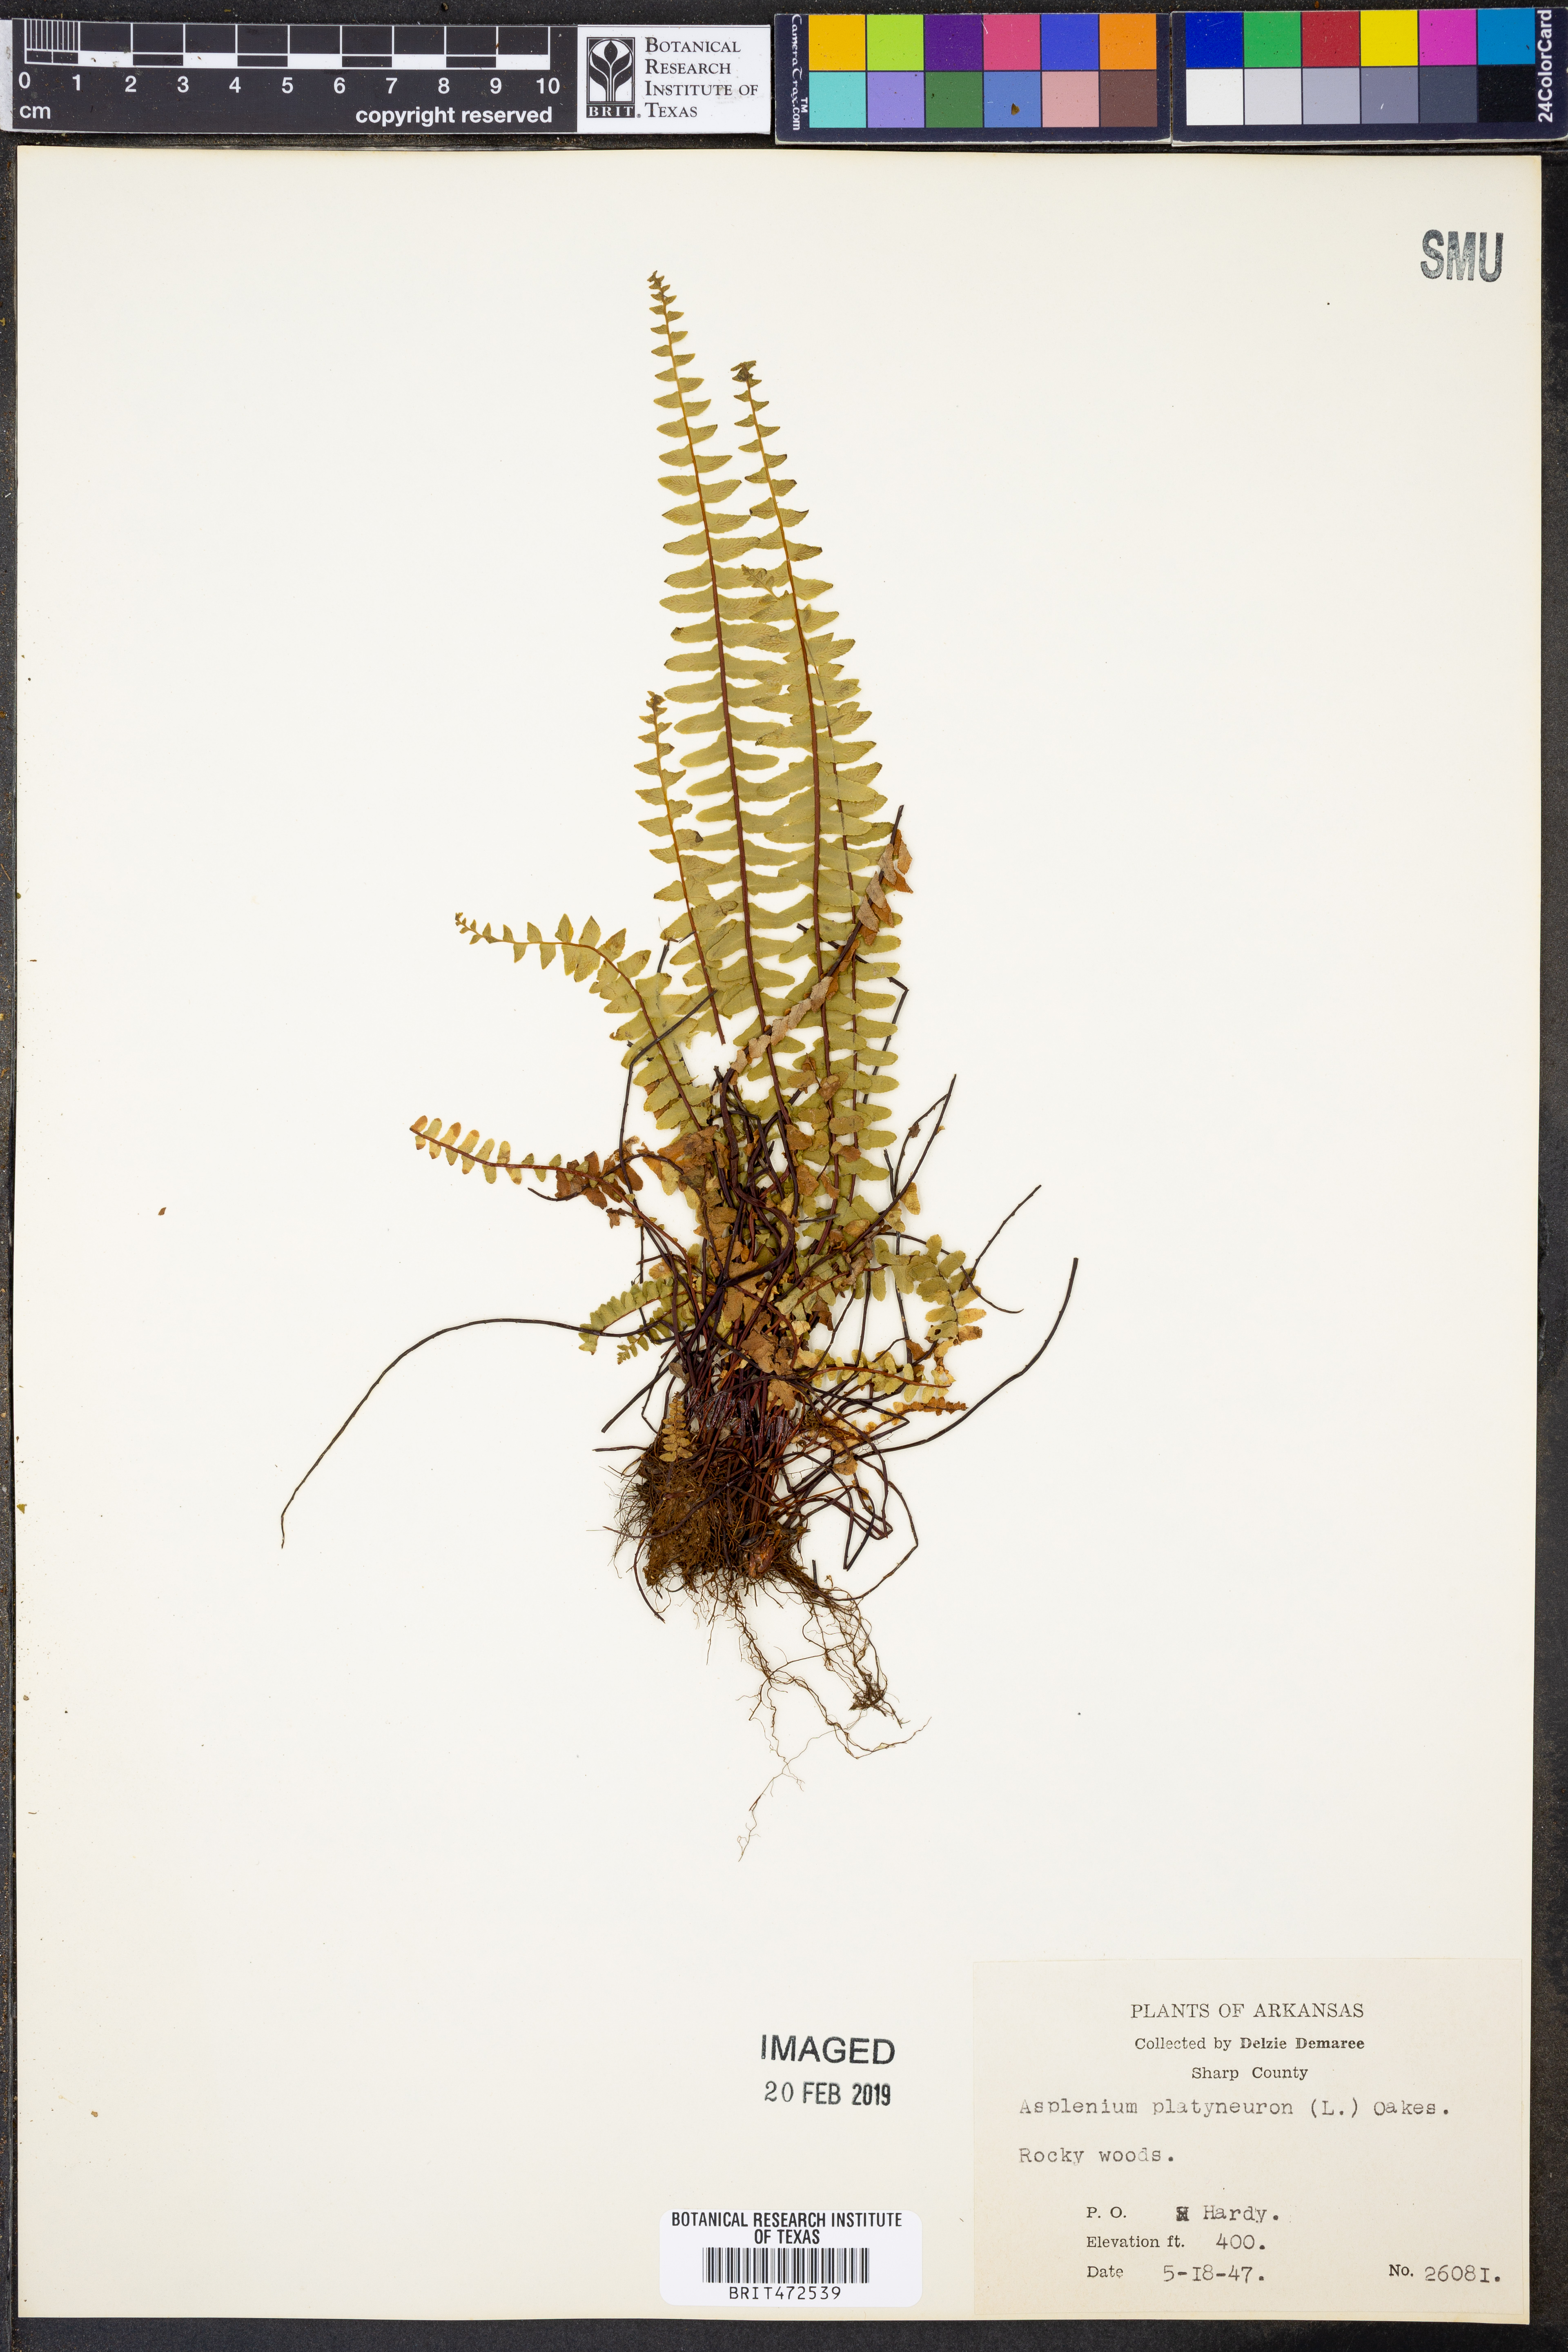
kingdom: Plantae
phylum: Tracheophyta
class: Polypodiopsida
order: Polypodiales
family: Aspleniaceae
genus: Asplenium
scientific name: Asplenium platyneuron
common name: Ebony spleenwort
